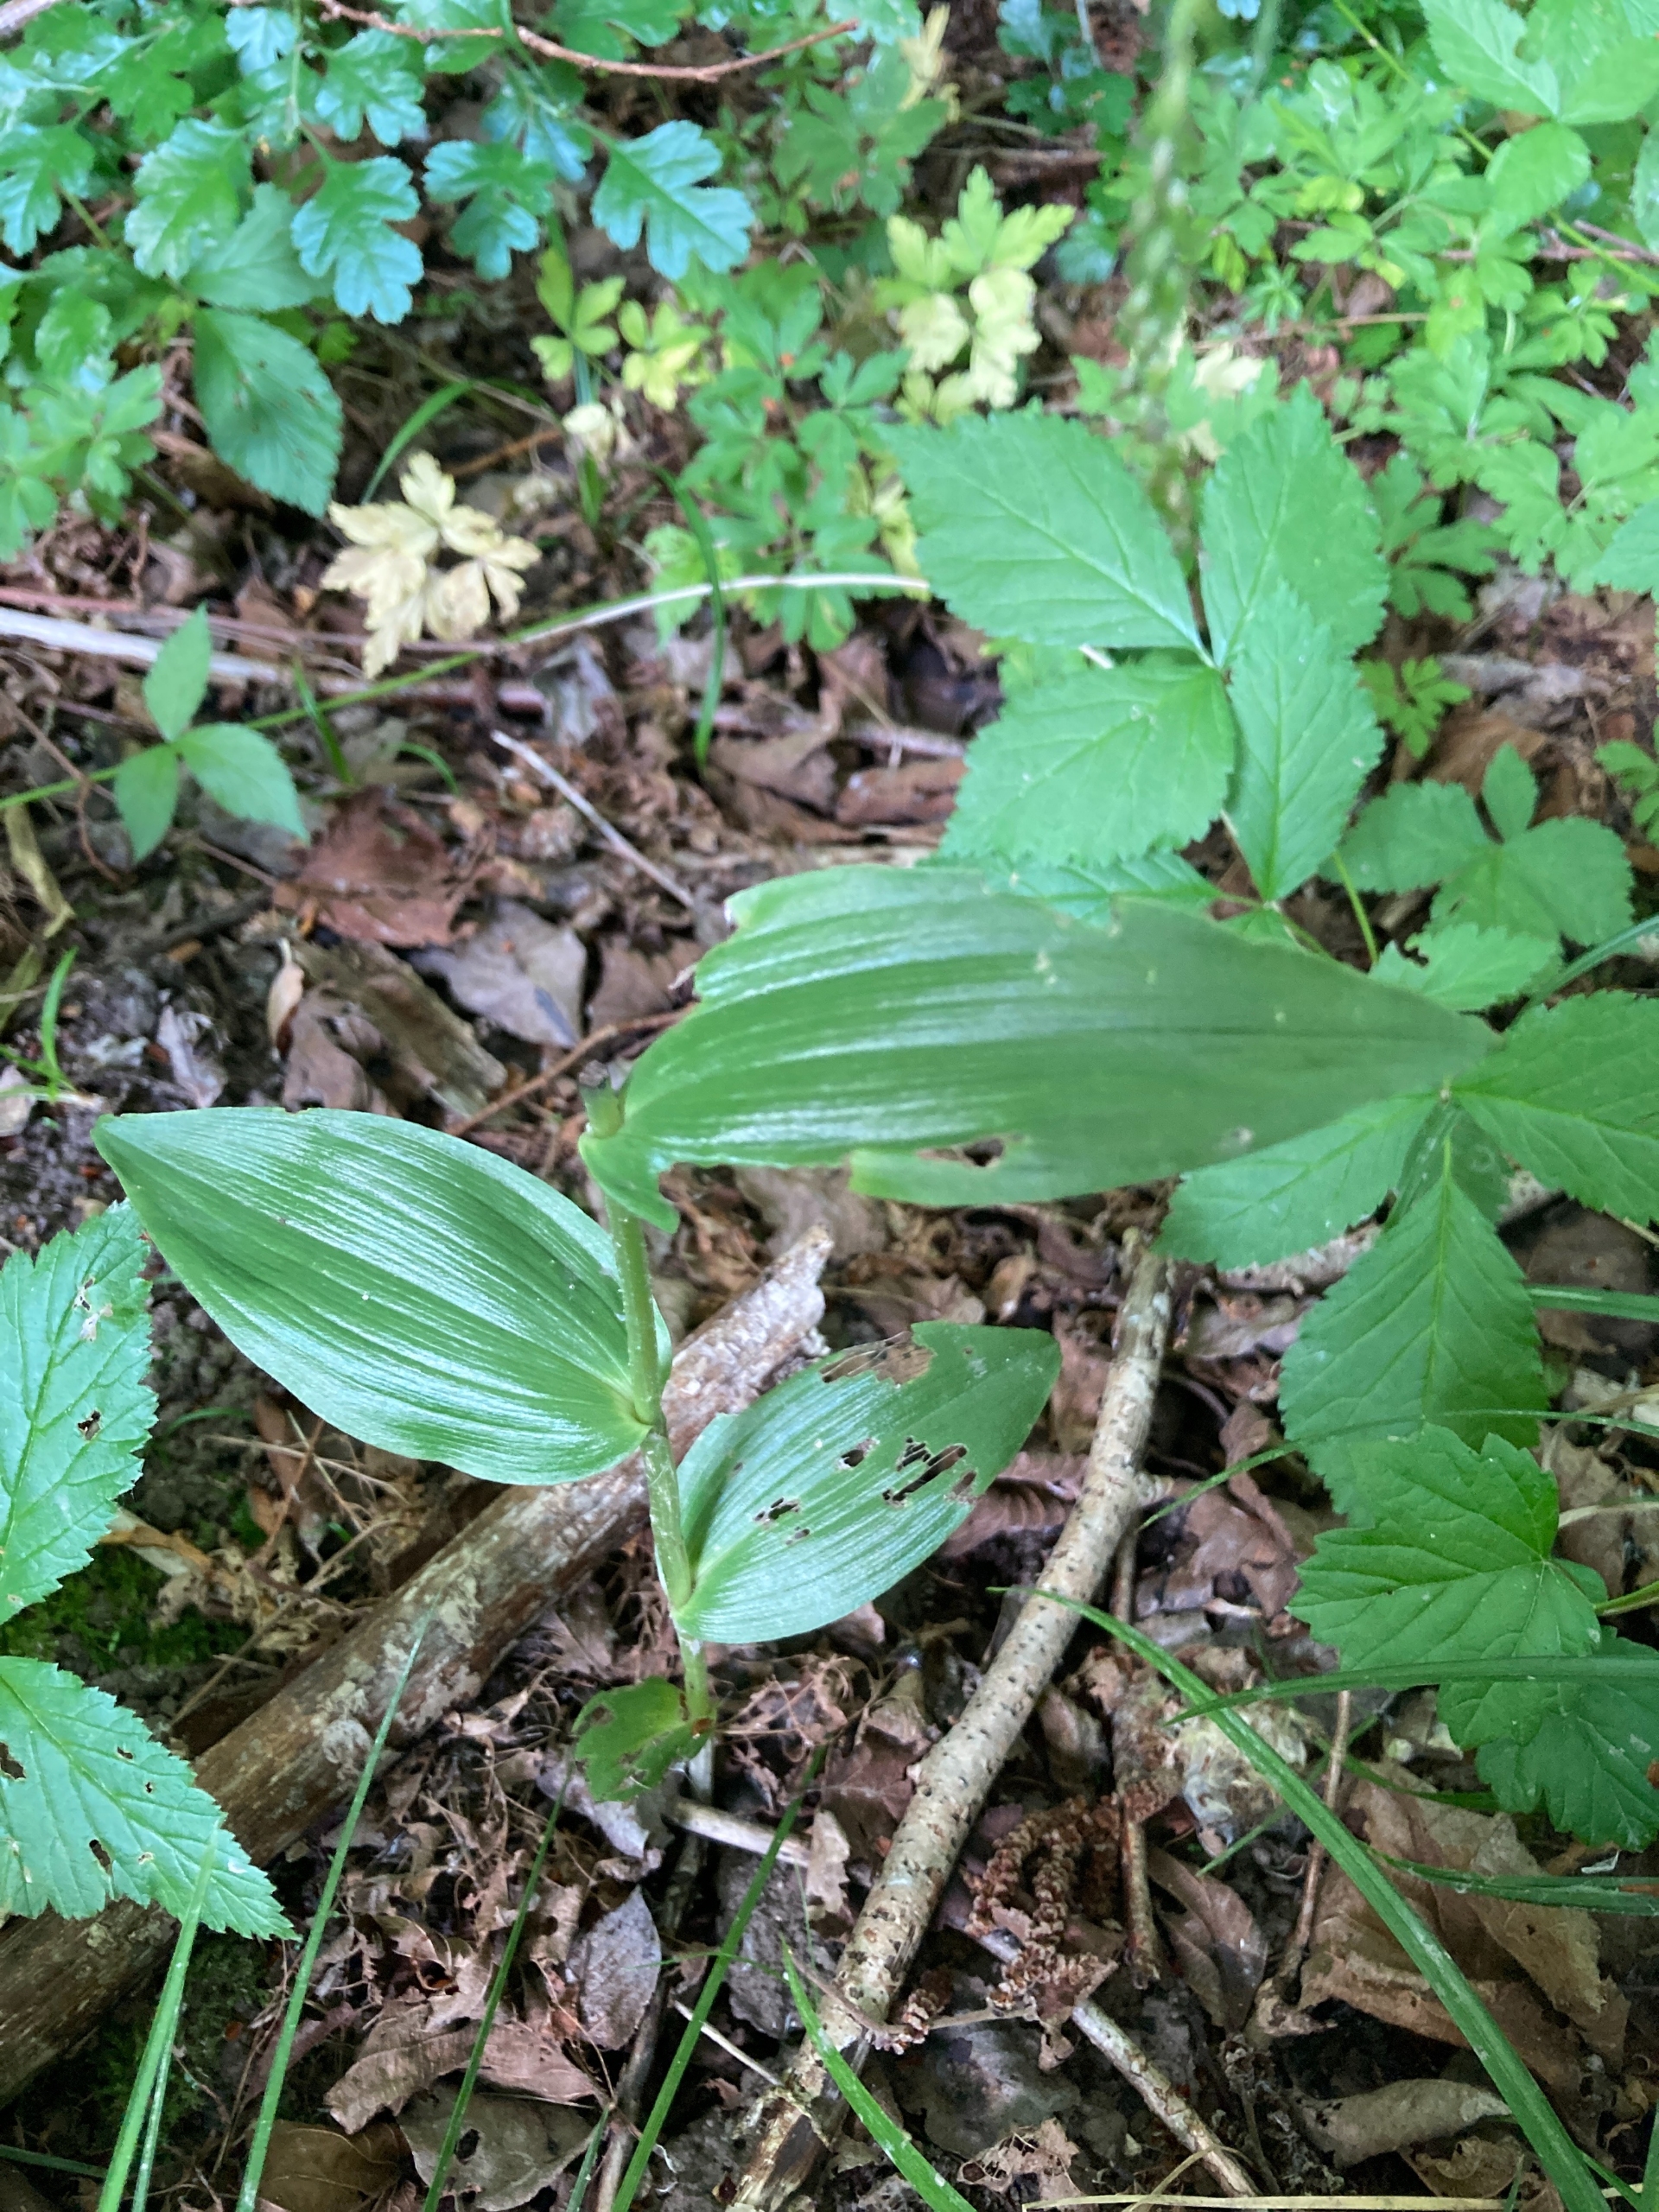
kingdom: Plantae
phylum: Tracheophyta
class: Liliopsida
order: Asparagales
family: Orchidaceae
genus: Epipactis
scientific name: Epipactis helleborine
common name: Skov-hullæbe
